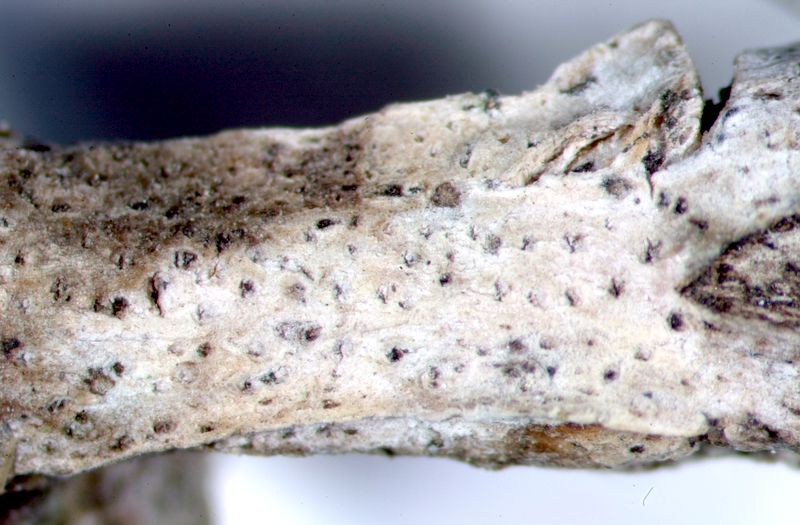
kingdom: Fungi
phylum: Ascomycota
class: Arthoniomycetes
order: Arthoniales
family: Arthoniaceae
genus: Arthonia
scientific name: Arthonia arthonioides
